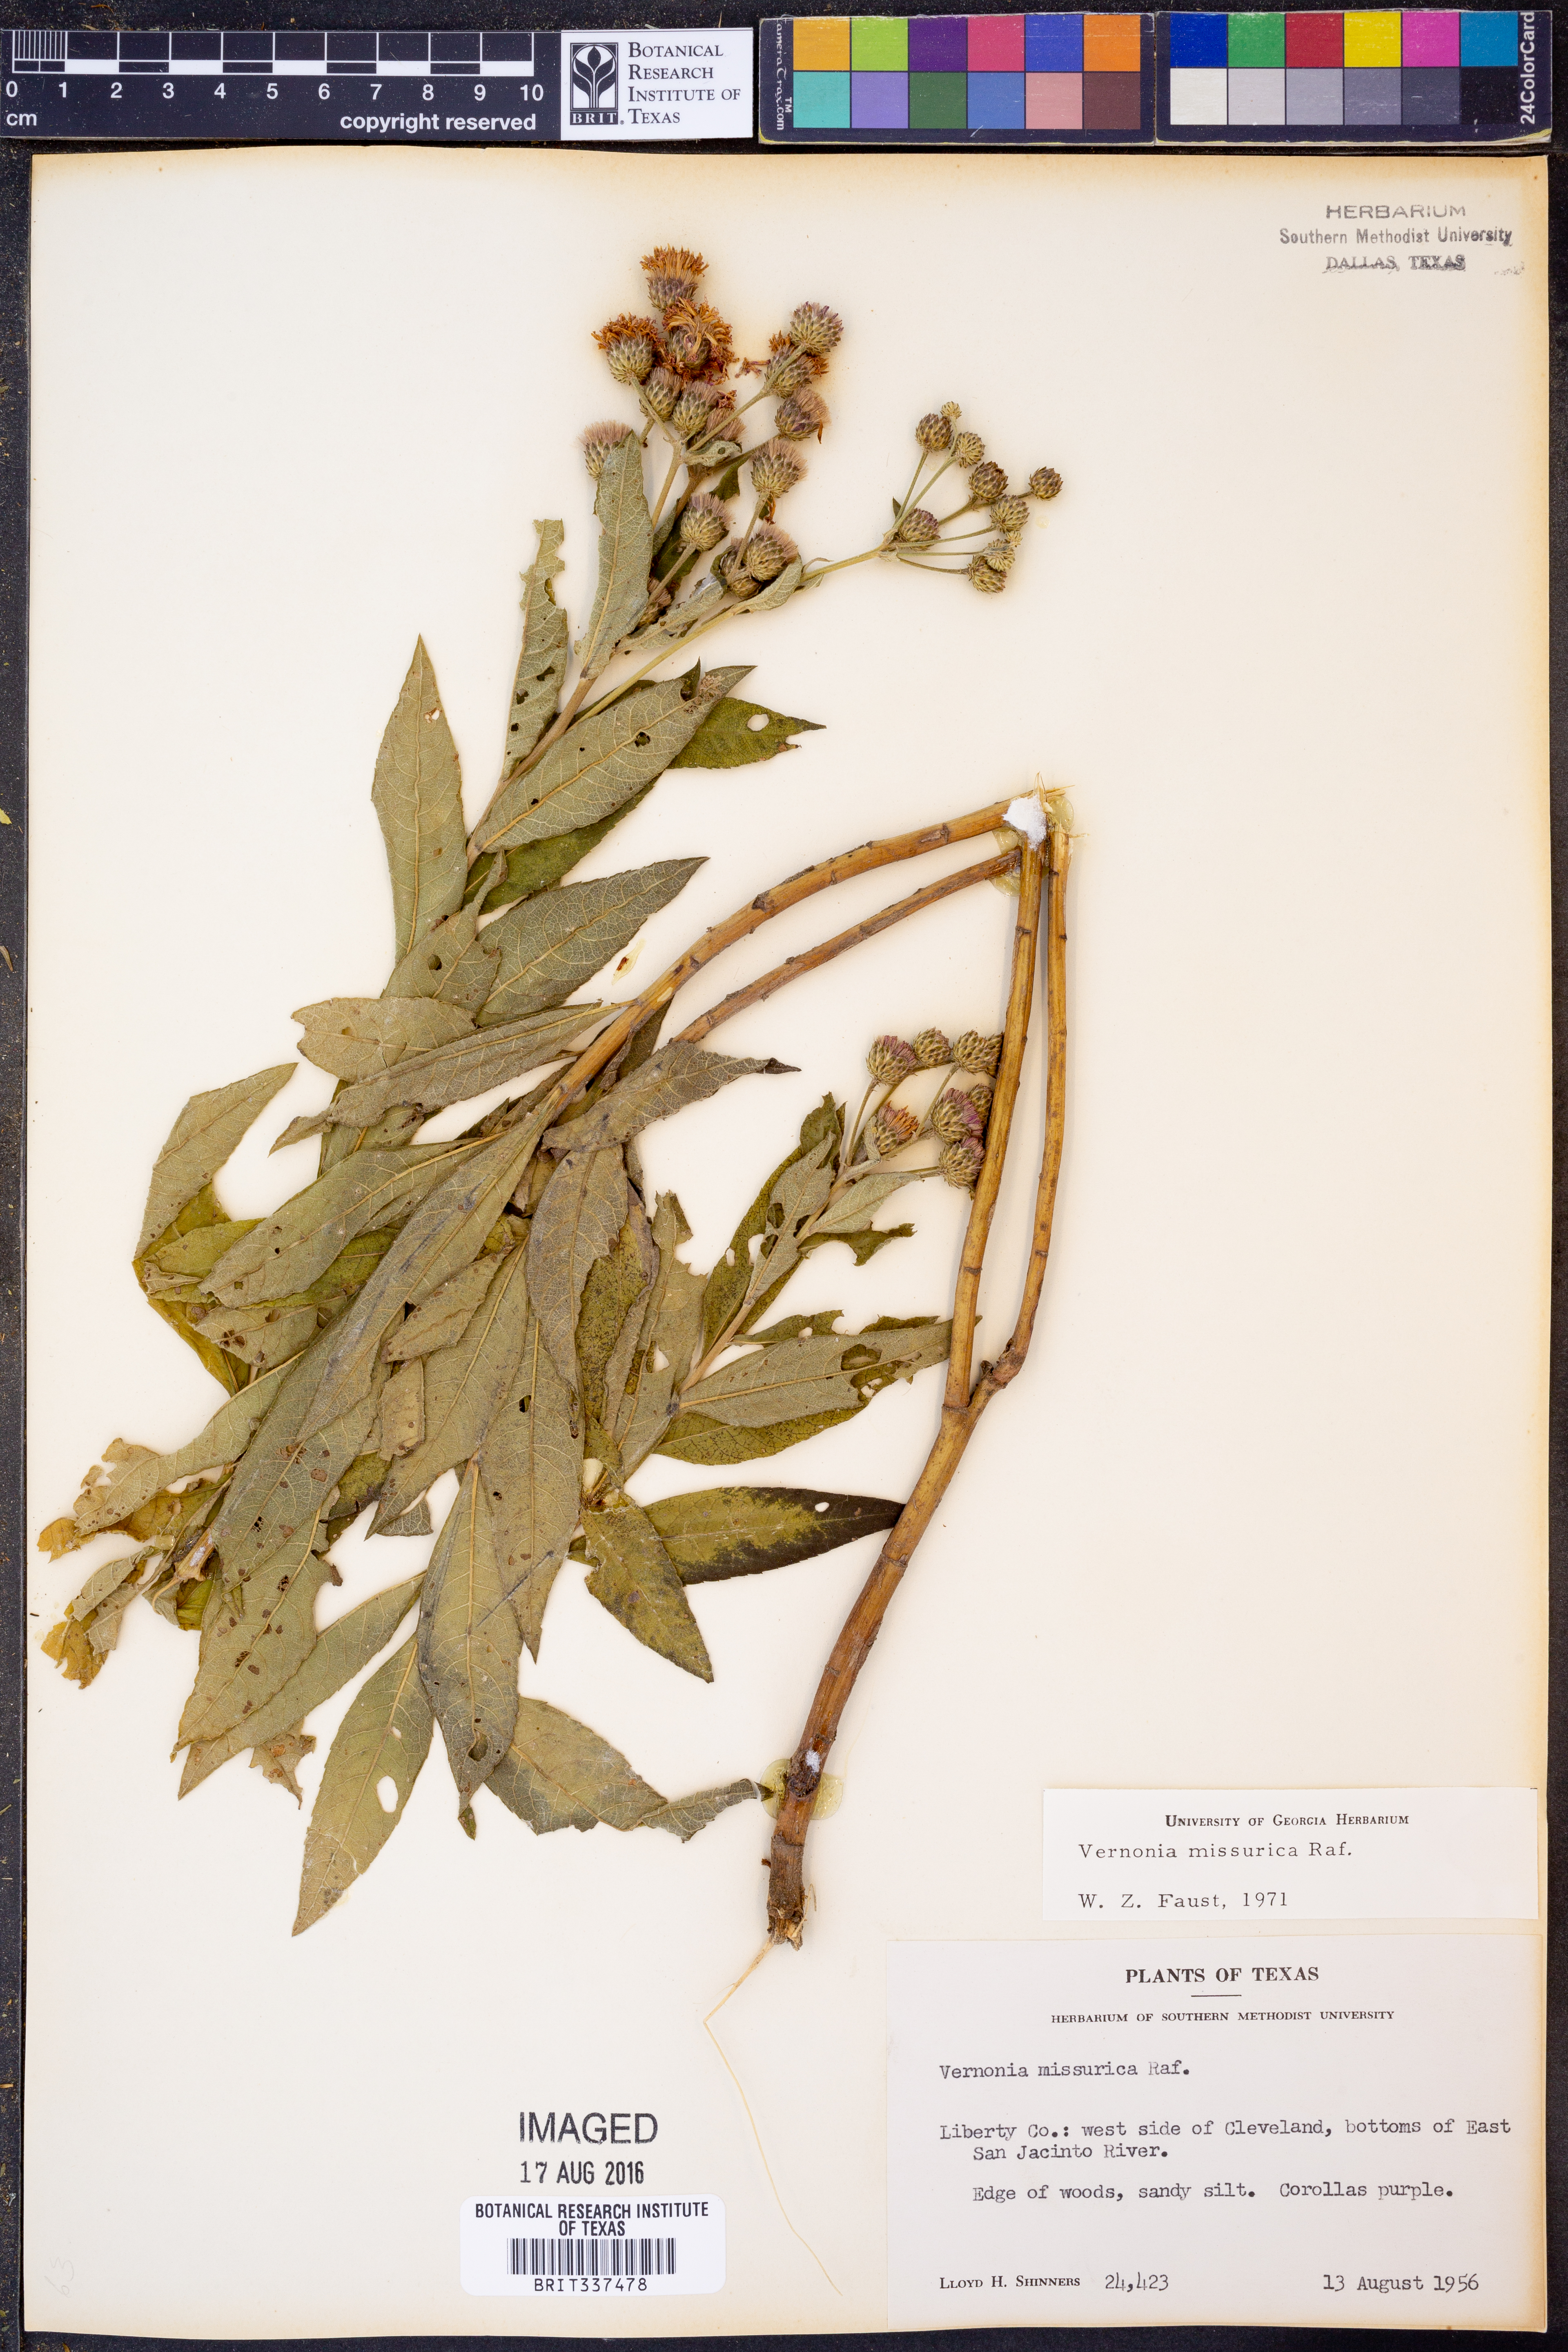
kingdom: Plantae
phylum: Tracheophyta
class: Magnoliopsida
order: Asterales
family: Asteraceae
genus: Vernonia
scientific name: Vernonia missurica
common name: Missouri ironweed
